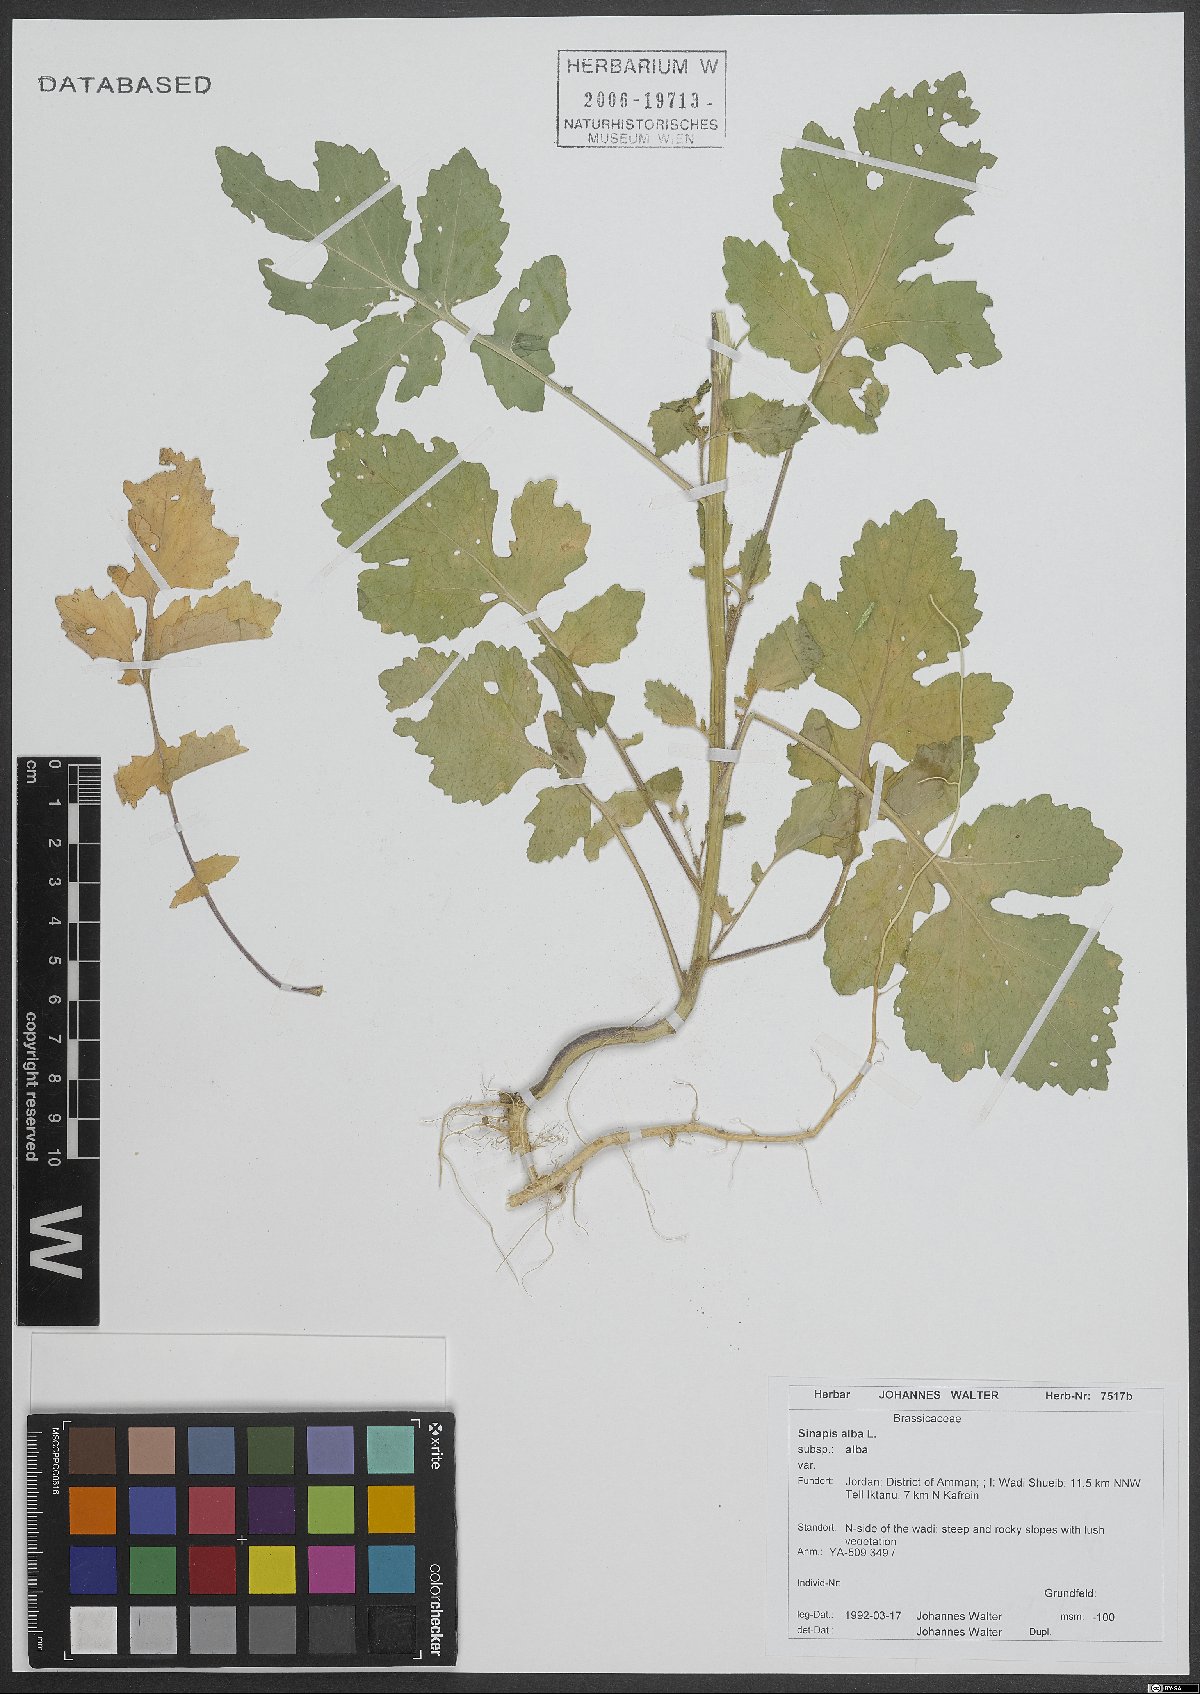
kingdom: Plantae
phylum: Tracheophyta
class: Magnoliopsida
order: Brassicales
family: Brassicaceae
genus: Sinapis
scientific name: Sinapis alba
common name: White mustard
